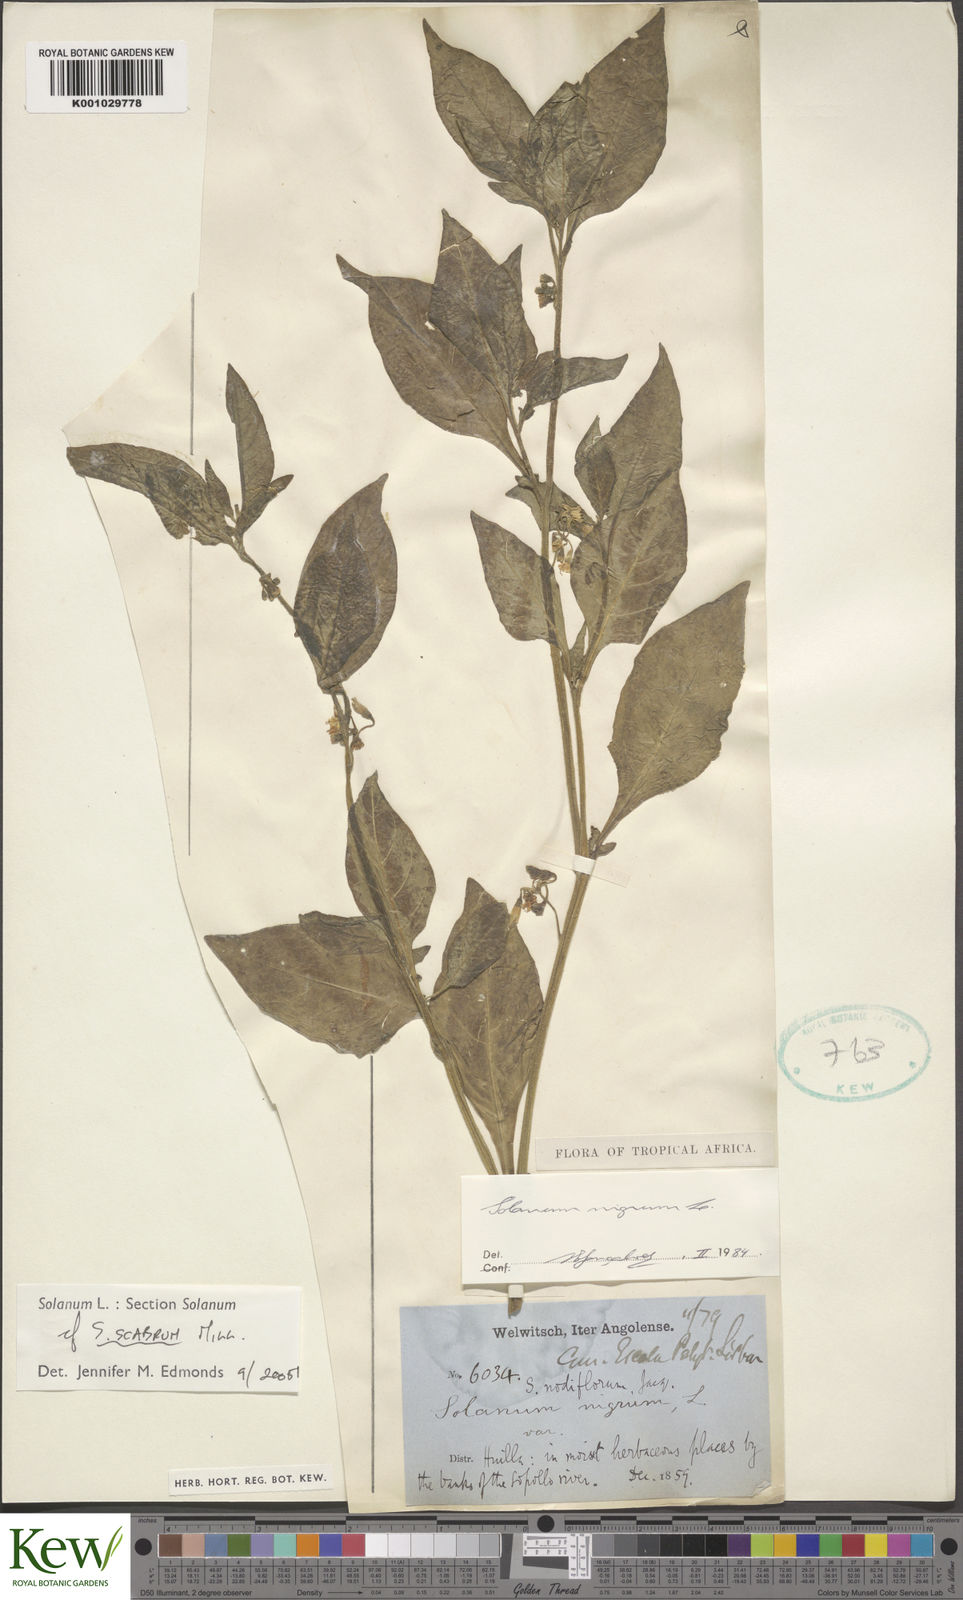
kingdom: Plantae
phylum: Tracheophyta
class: Magnoliopsida
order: Solanales
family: Solanaceae
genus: Solanum
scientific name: Solanum scabrum
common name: Garden-huckleberry
